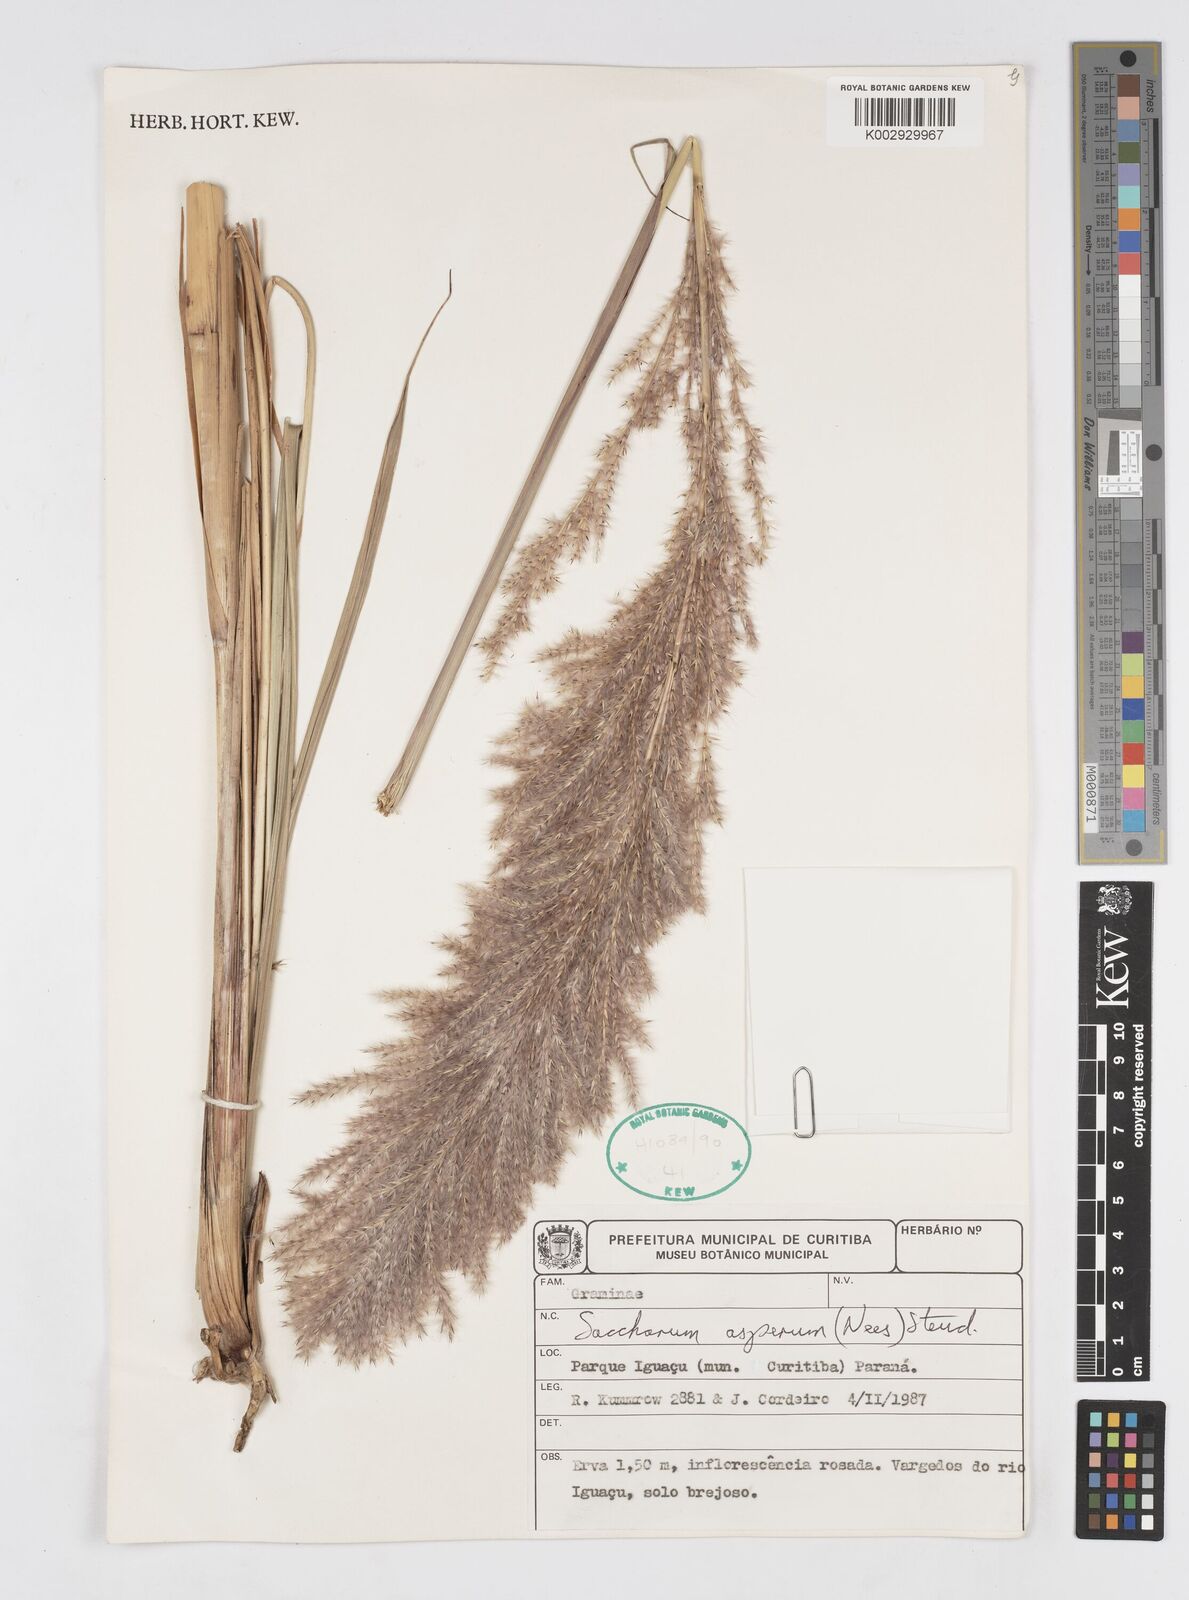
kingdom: Plantae
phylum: Tracheophyta
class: Liliopsida
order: Poales
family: Poaceae
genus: Erianthus
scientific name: Erianthus asper
